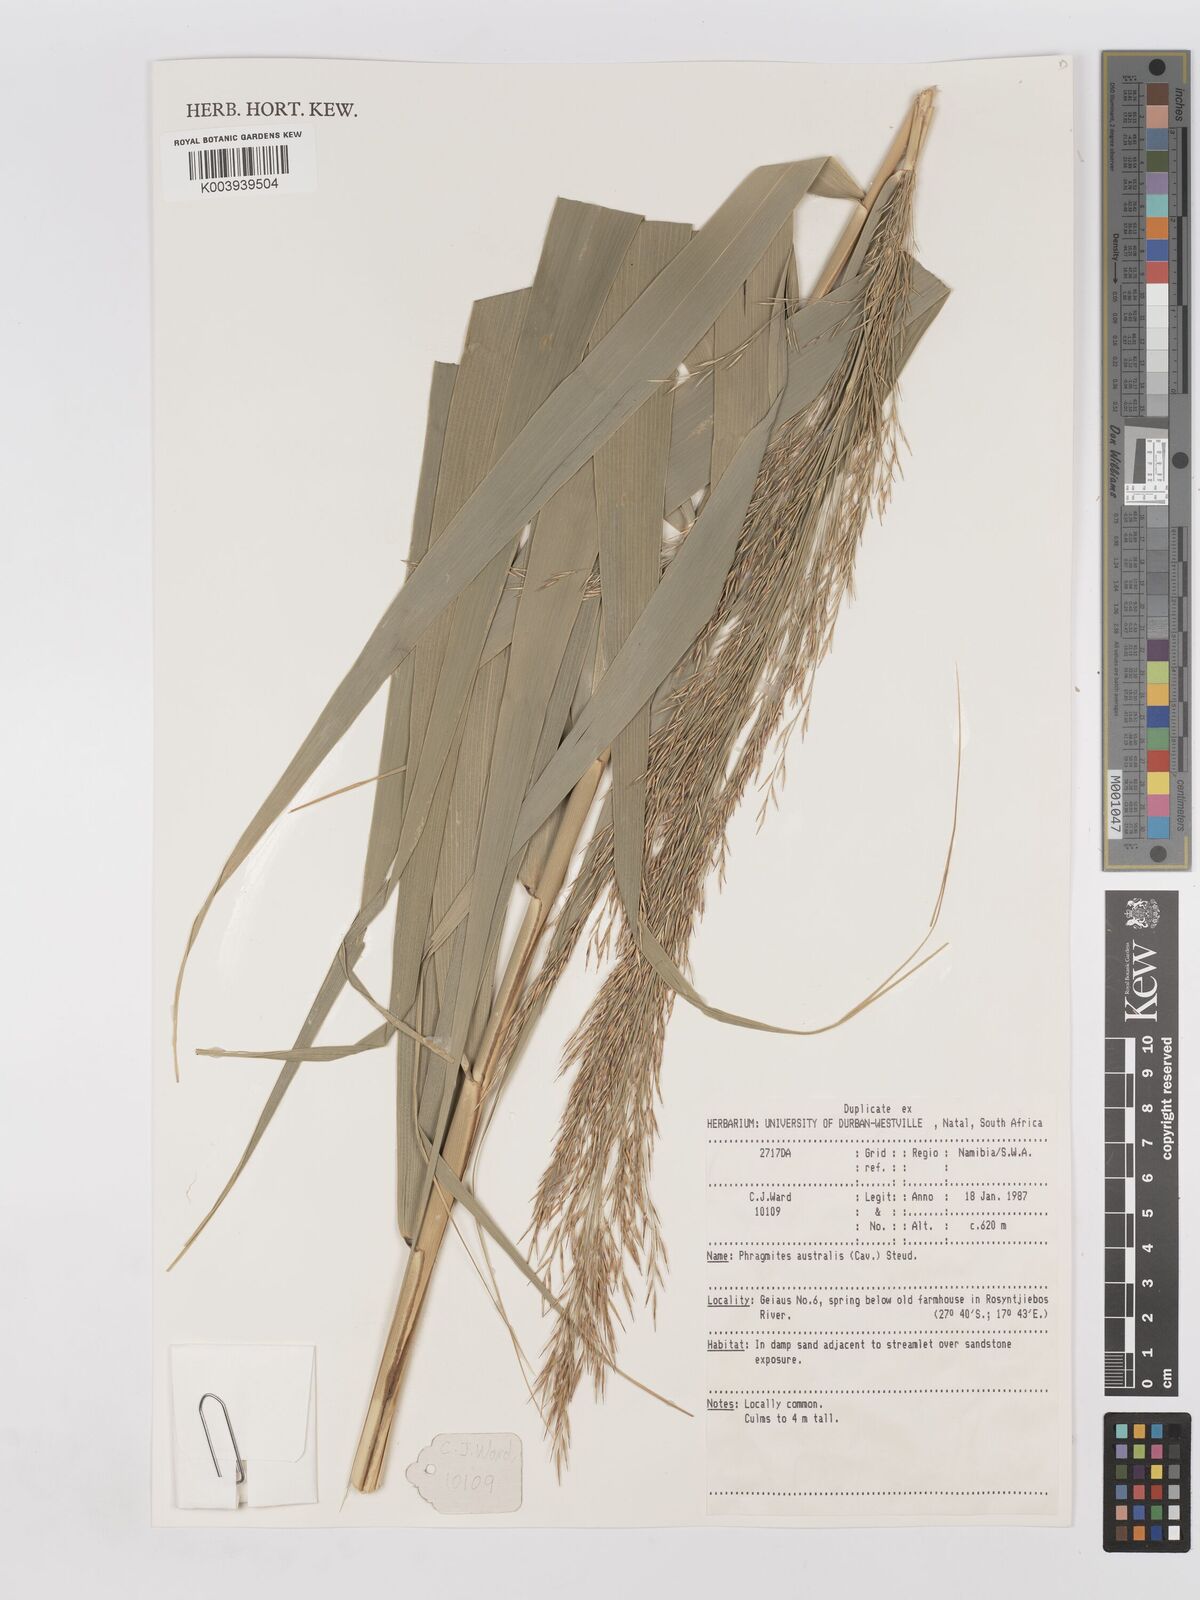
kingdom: Plantae
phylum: Tracheophyta
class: Liliopsida
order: Poales
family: Poaceae
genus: Phragmites
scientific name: Phragmites australis
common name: Common reed
